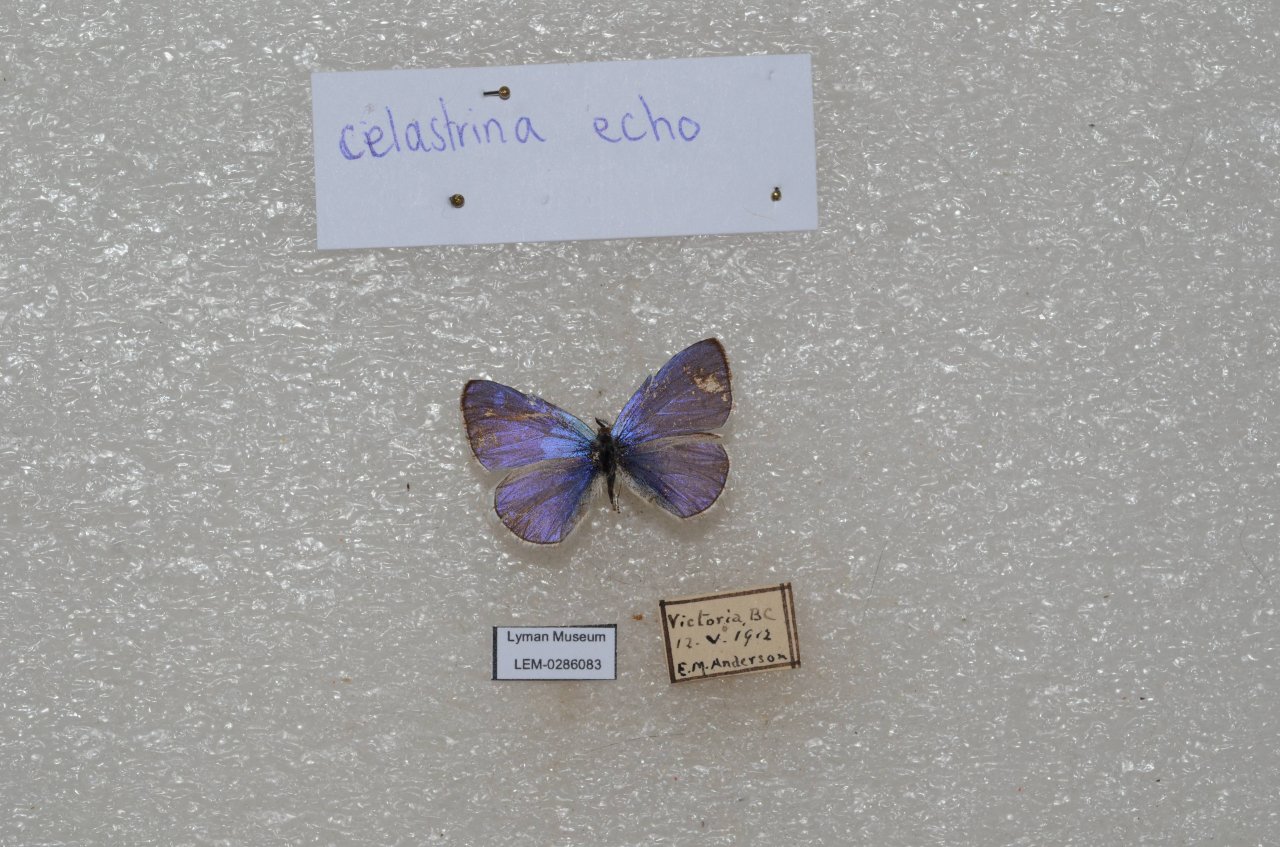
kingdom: Animalia
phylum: Arthropoda
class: Insecta
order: Lepidoptera
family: Lycaenidae
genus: Celastrina
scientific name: Celastrina ladon
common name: Echo Azure
